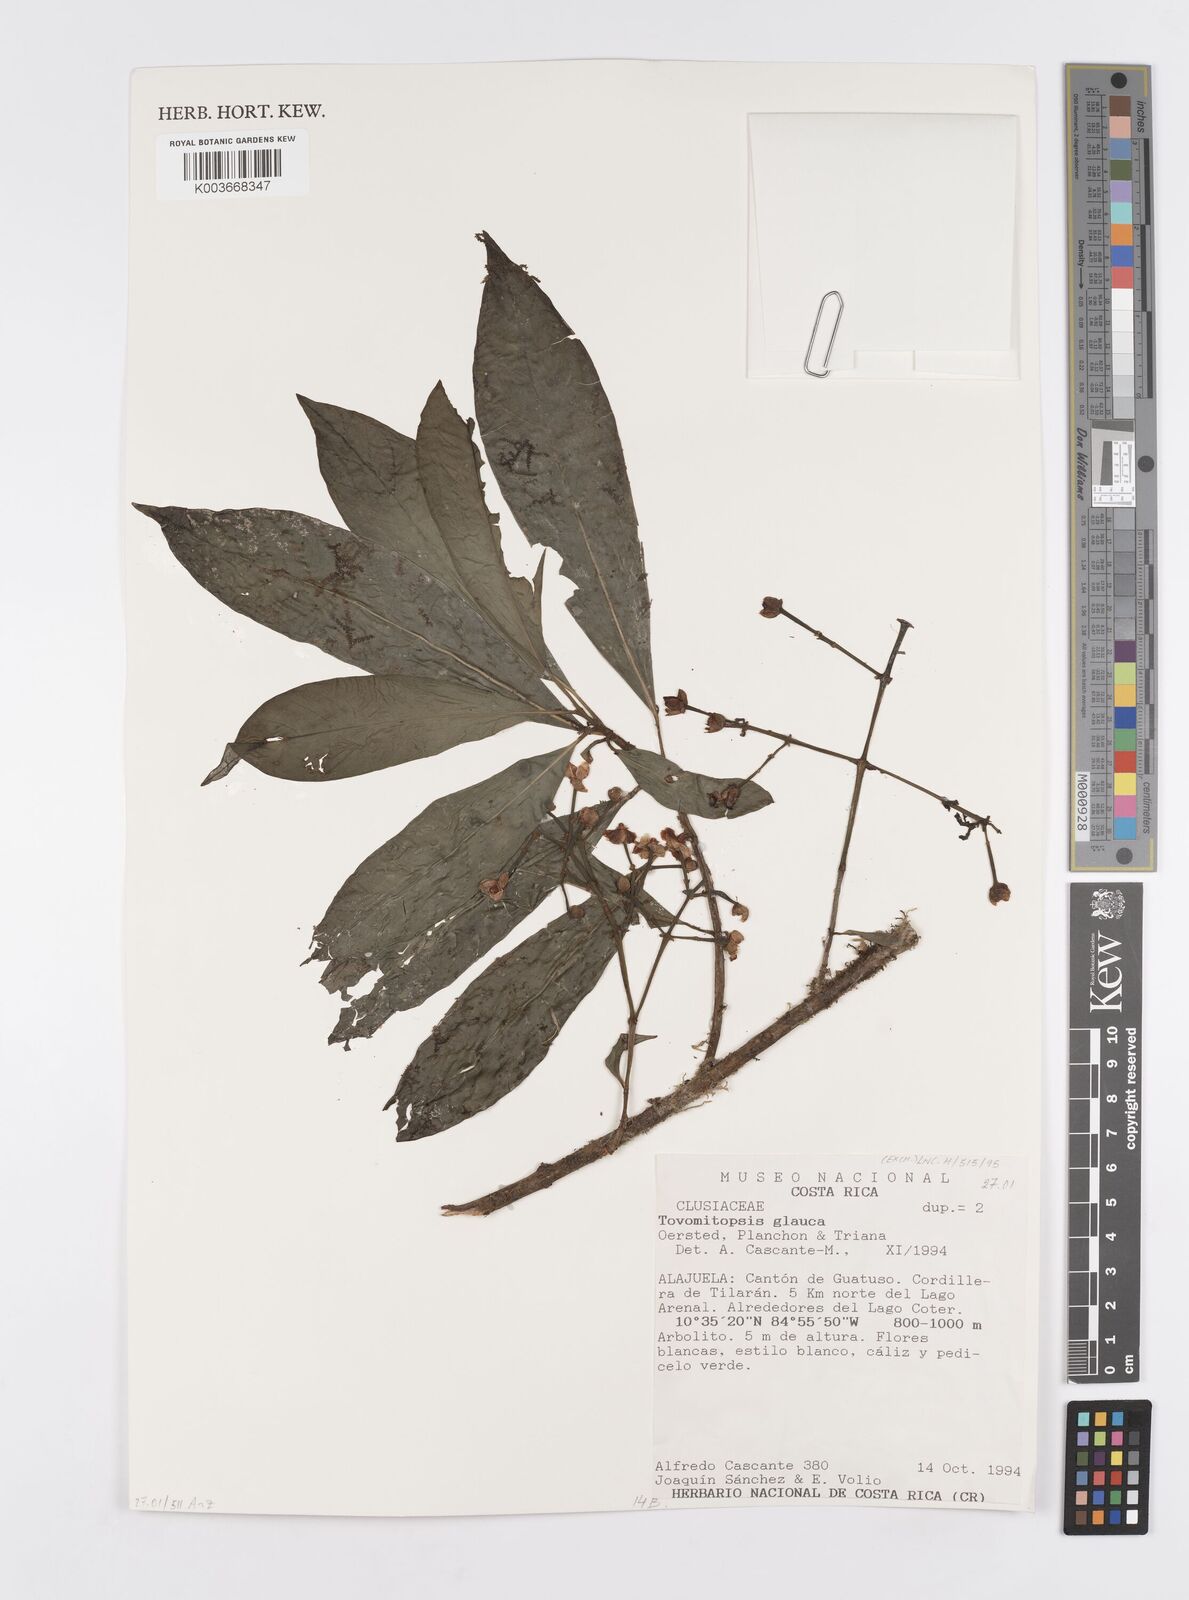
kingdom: Plantae
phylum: Tracheophyta
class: Magnoliopsida
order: Malpighiales
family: Clusiaceae
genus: Chrysochlamys
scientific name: Chrysochlamys glauca
